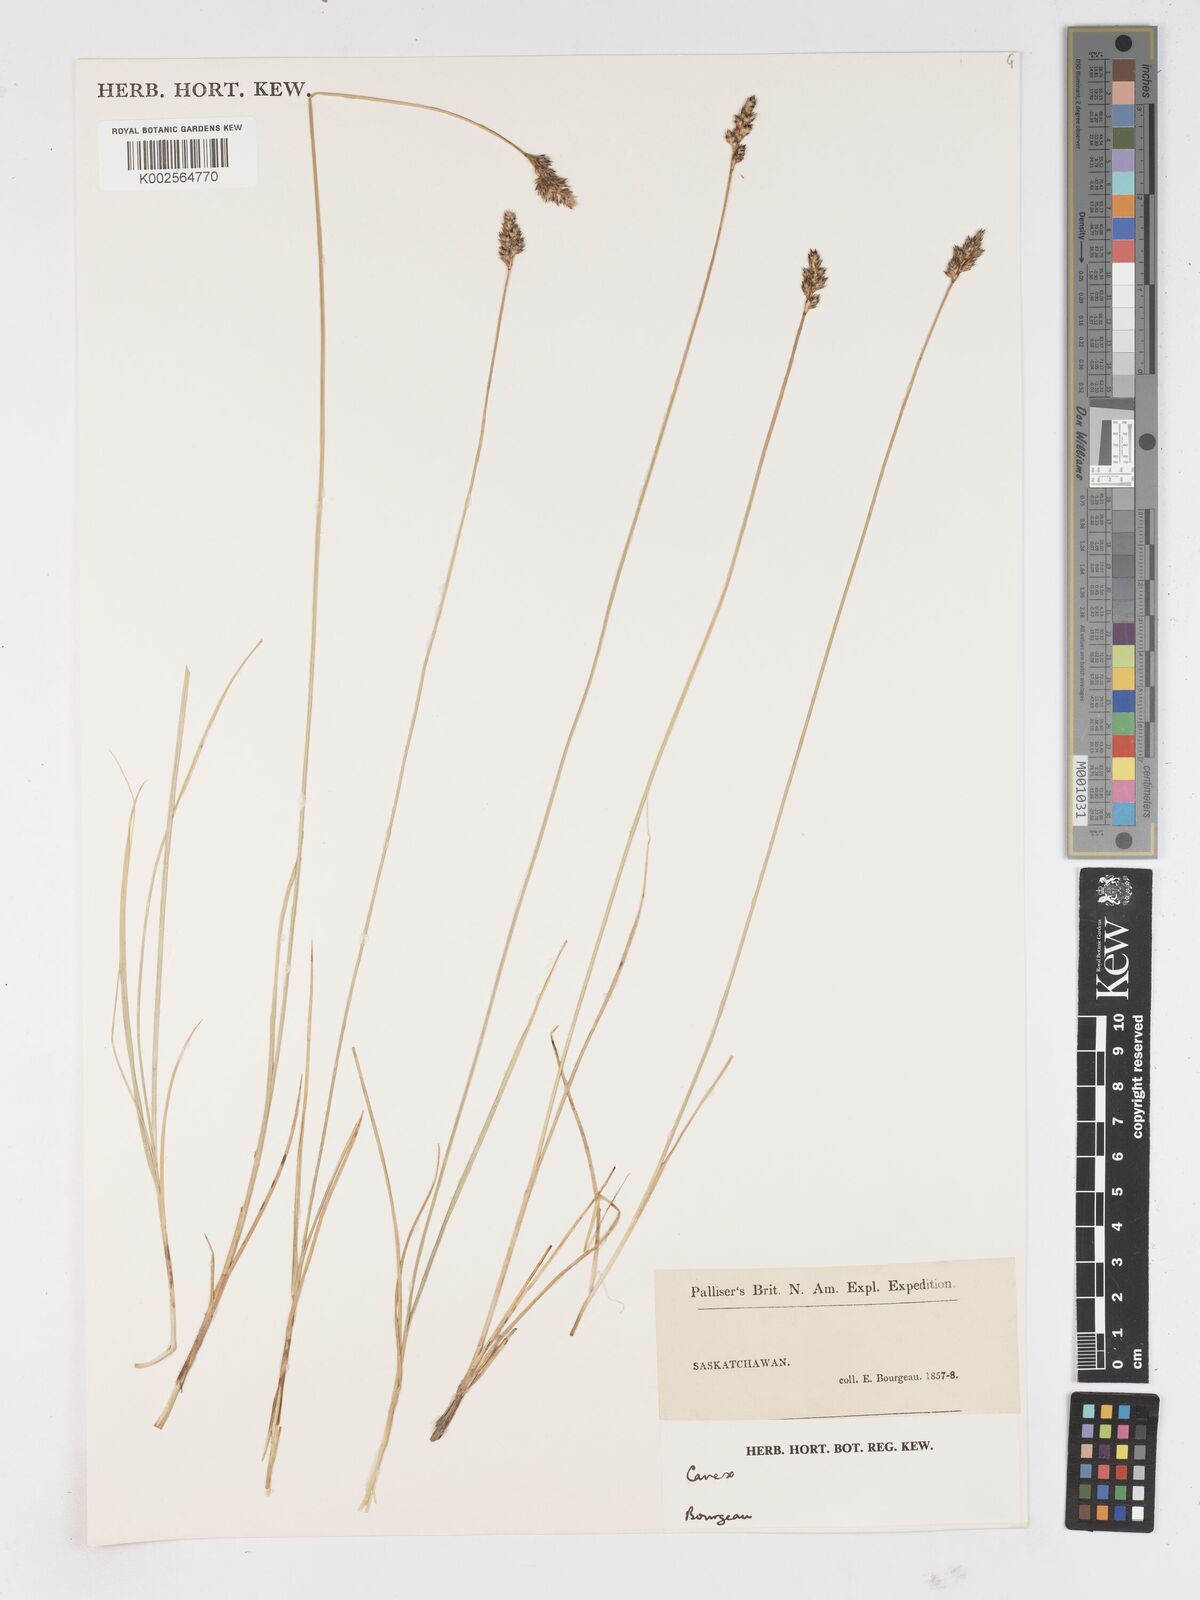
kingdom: Plantae
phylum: Tracheophyta
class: Liliopsida
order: Poales
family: Cyperaceae
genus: Carex
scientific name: Carex
